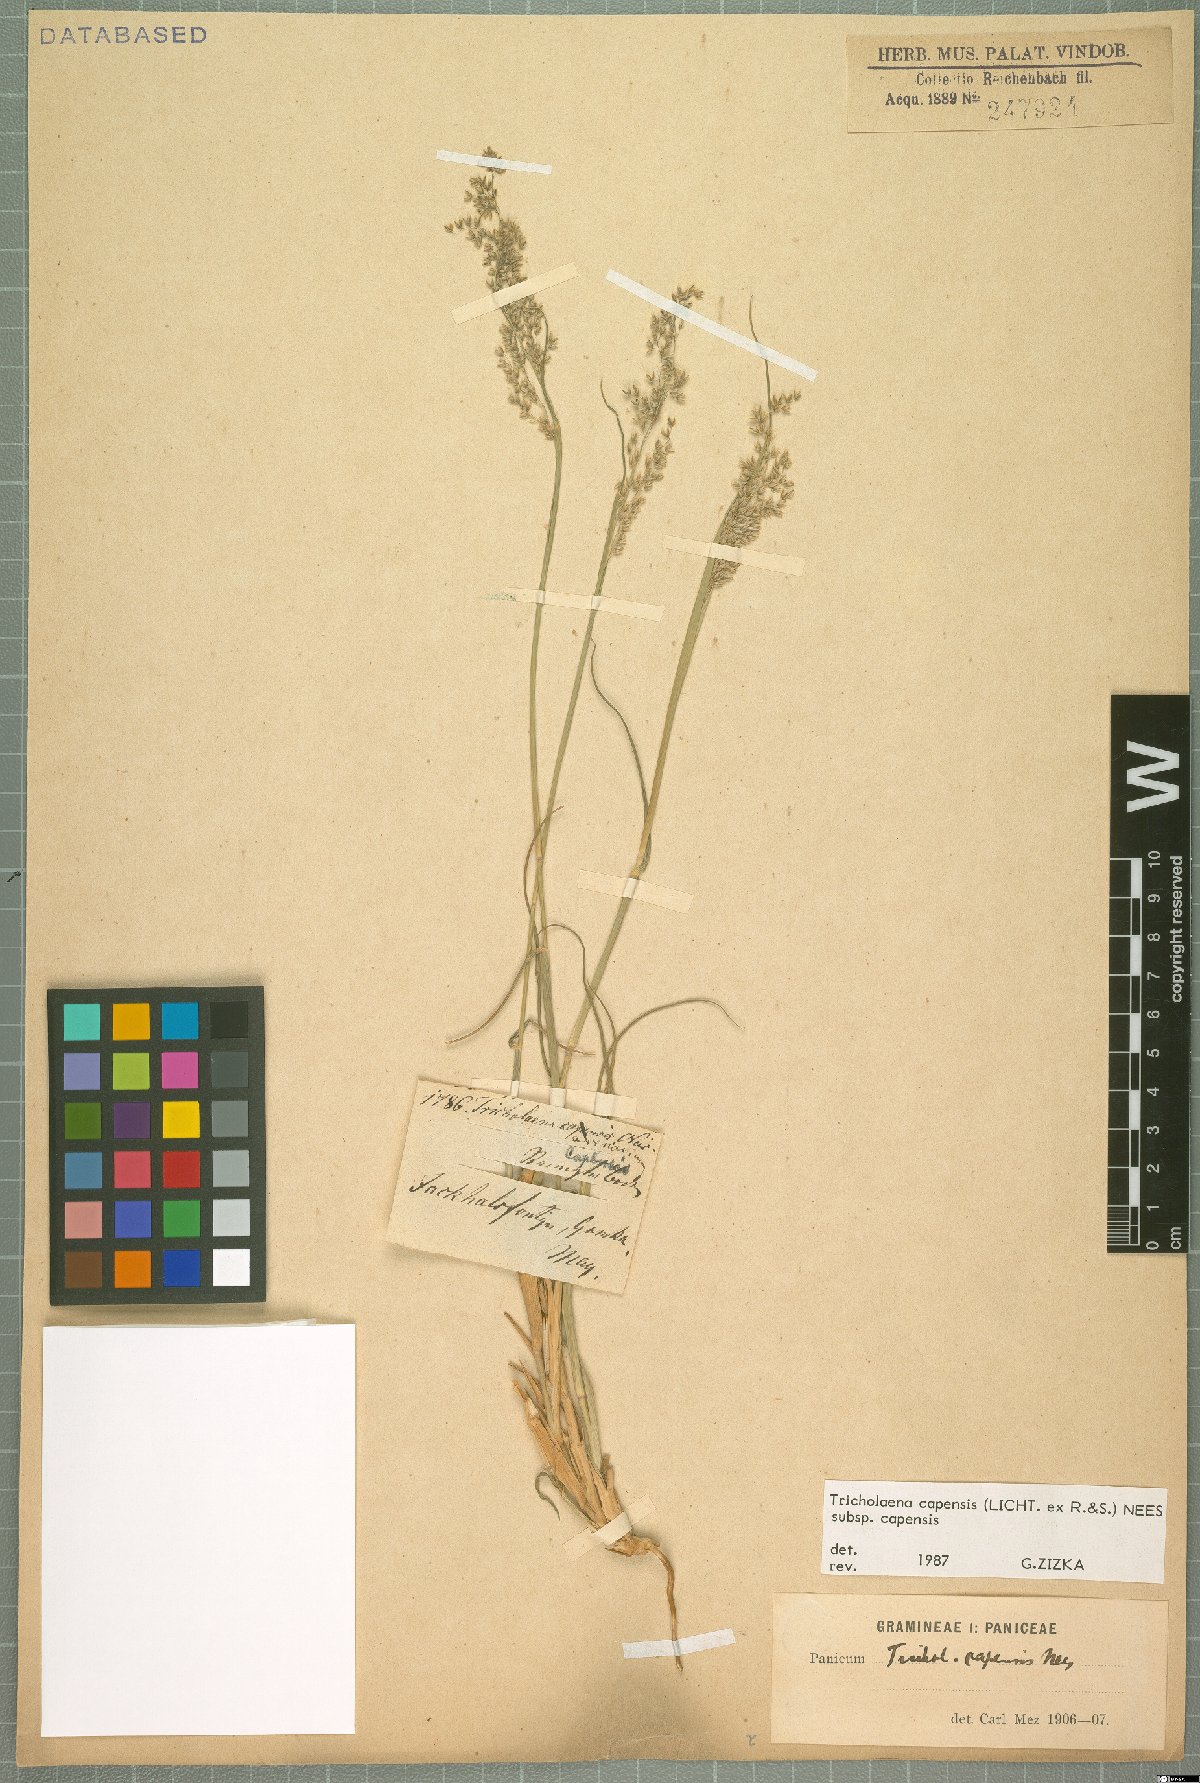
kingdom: Plantae
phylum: Tracheophyta
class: Liliopsida
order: Poales
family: Poaceae
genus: Tricholaena
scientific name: Tricholaena capensis
